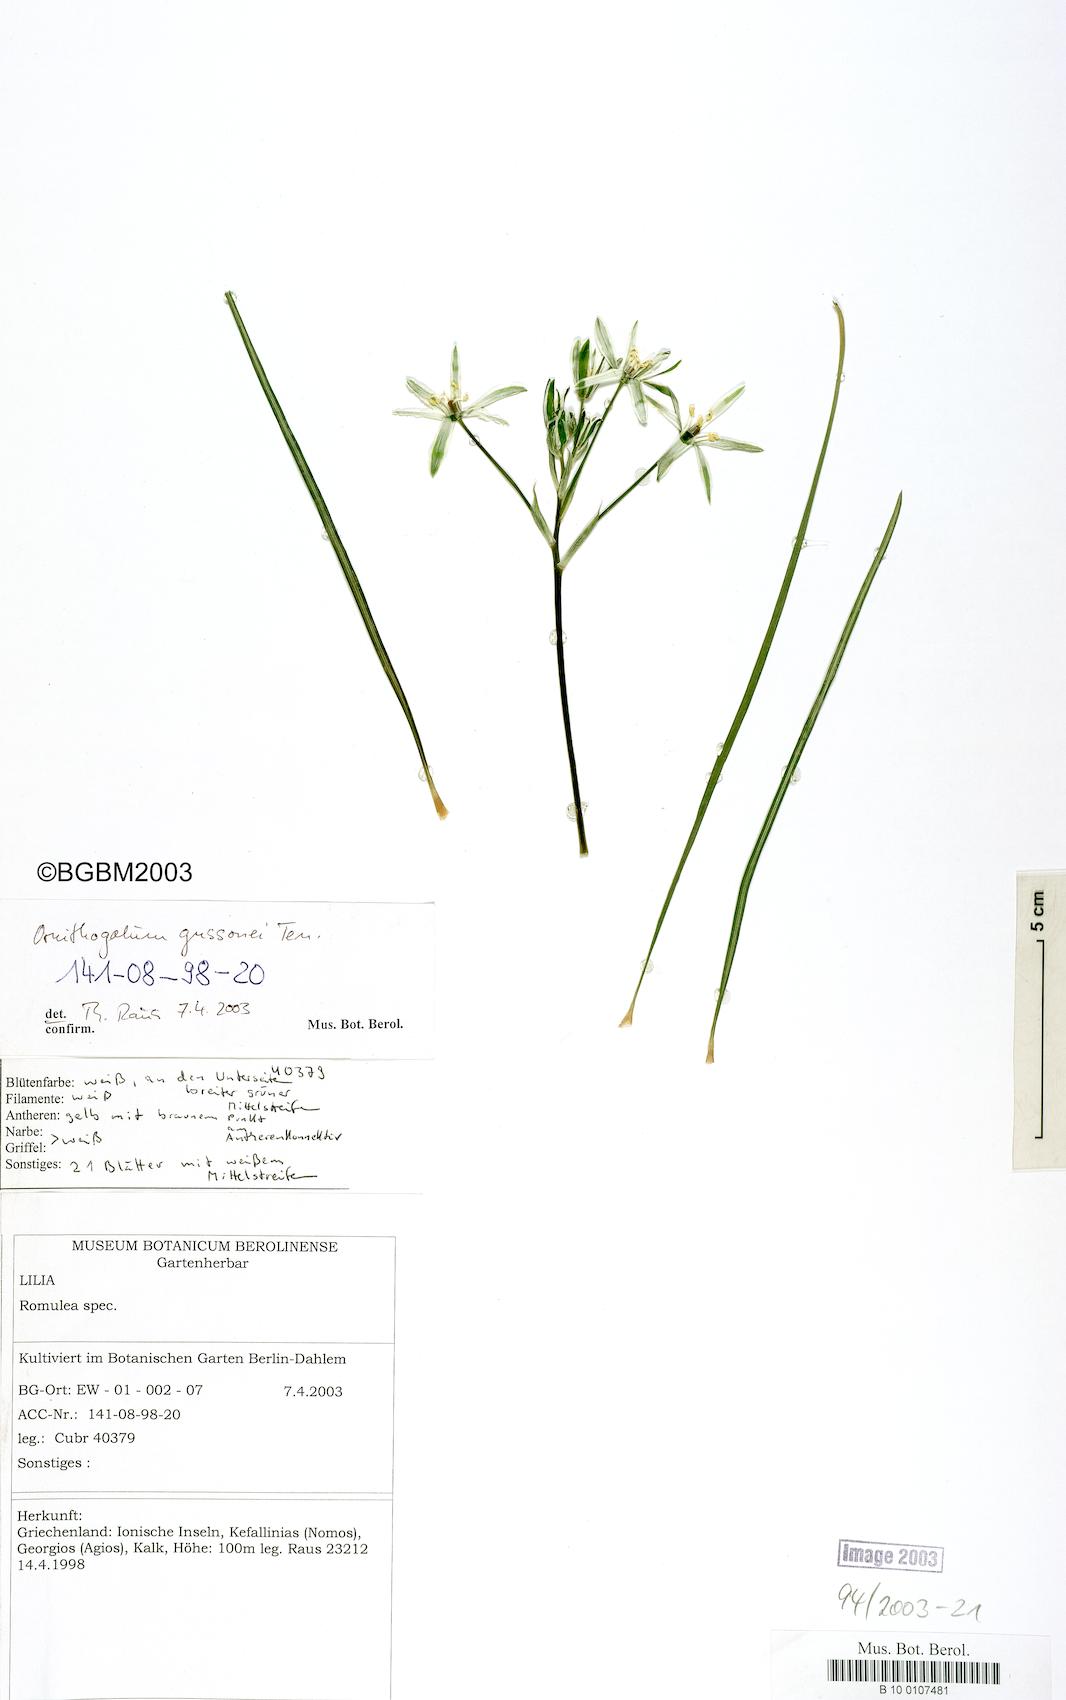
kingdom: Plantae
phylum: Tracheophyta
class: Liliopsida
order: Asparagales
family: Asparagaceae
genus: Ornithogalum
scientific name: Ornithogalum gussonei
